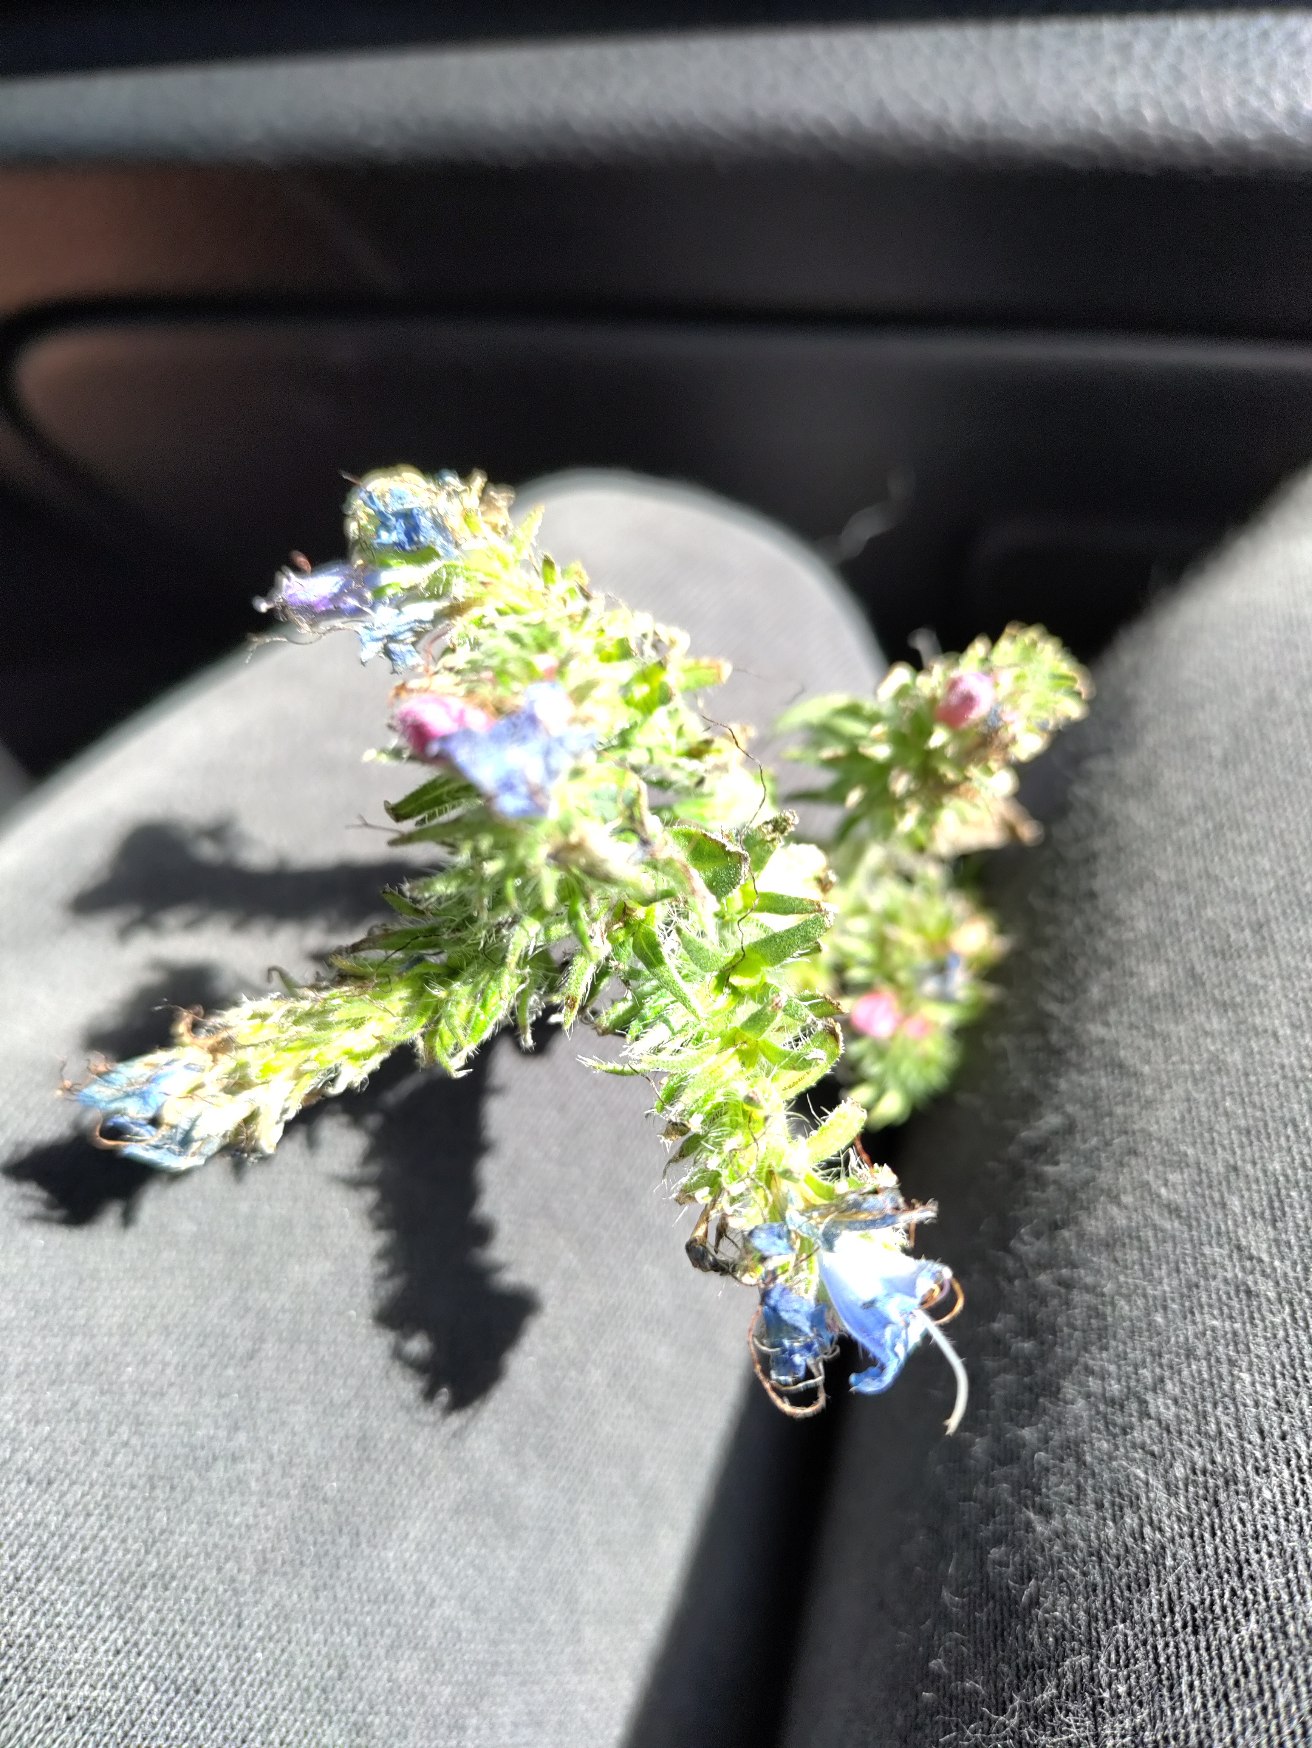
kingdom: Plantae
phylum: Tracheophyta
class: Magnoliopsida
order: Boraginales
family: Boraginaceae
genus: Echium
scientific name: Echium vulgare
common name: Slangehoved
